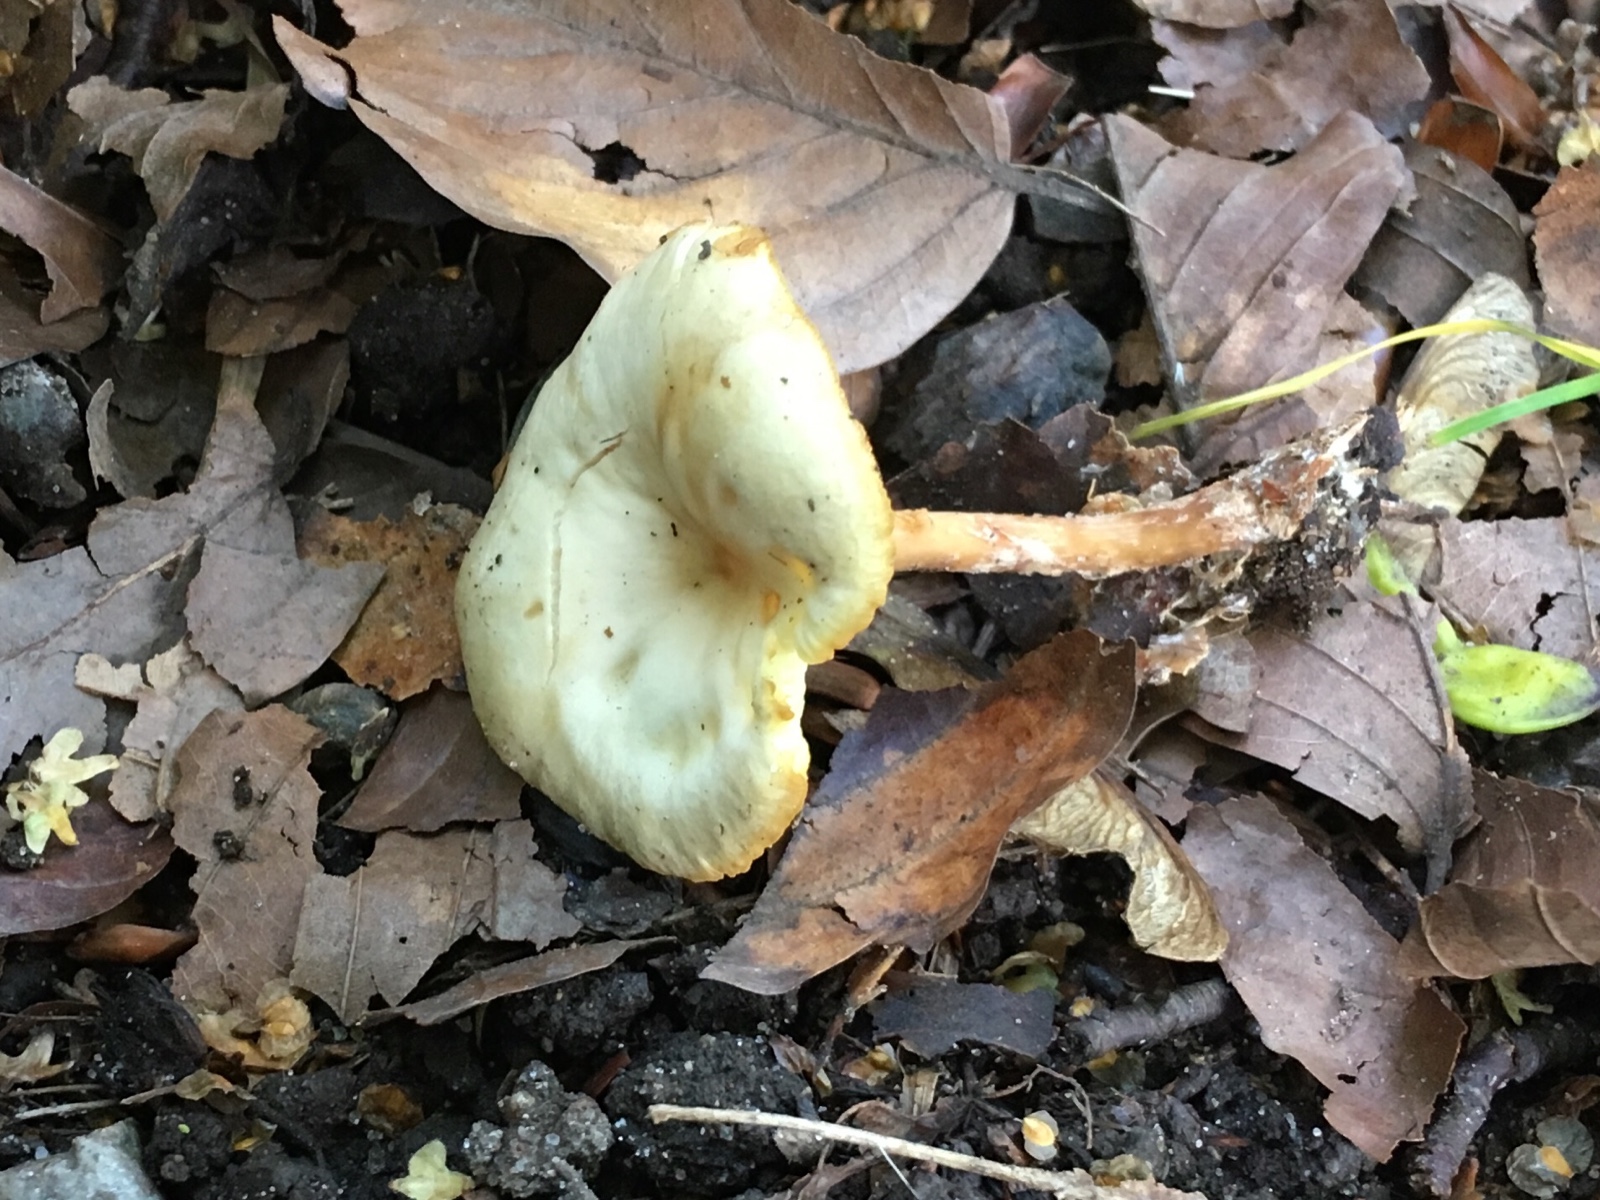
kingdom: Fungi
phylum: Basidiomycota
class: Agaricomycetes
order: Agaricales
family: Omphalotaceae
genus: Gymnopus
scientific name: Gymnopus
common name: fladhat
